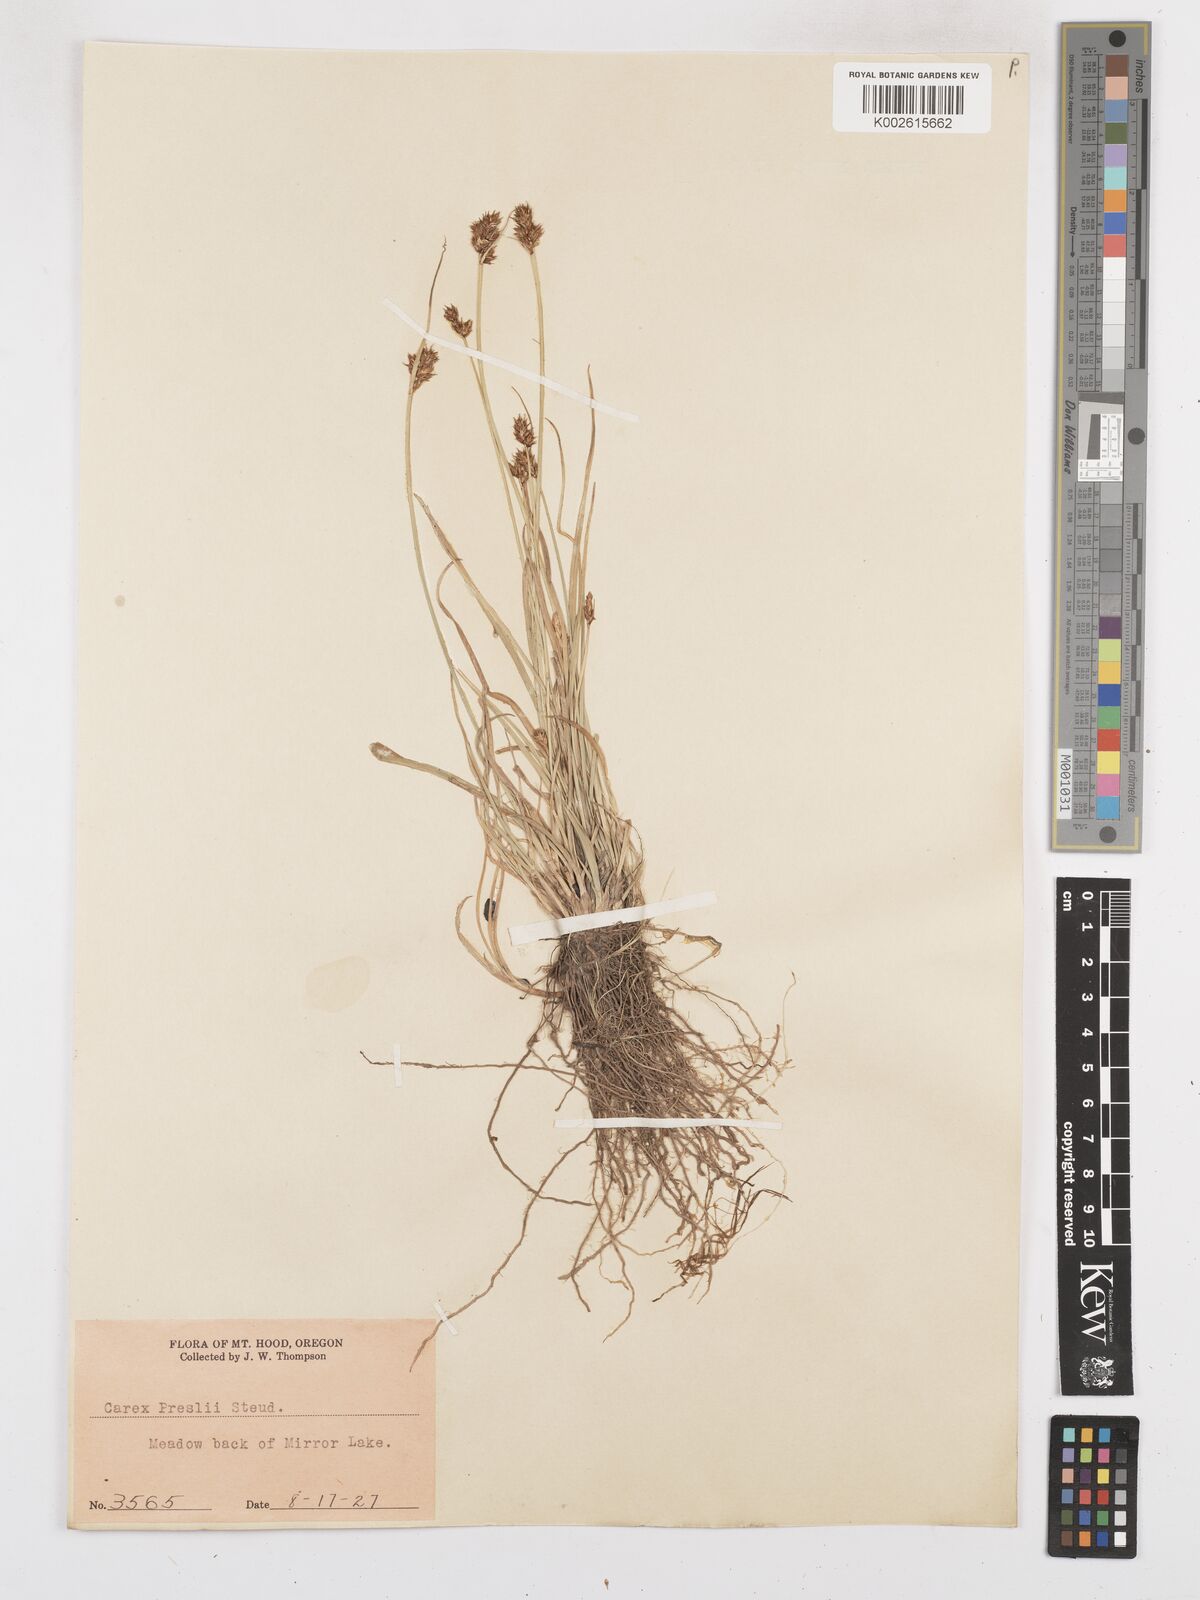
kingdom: Plantae
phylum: Tracheophyta
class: Liliopsida
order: Poales
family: Cyperaceae
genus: Carex
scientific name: Carex preslii
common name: Presl's sedge
